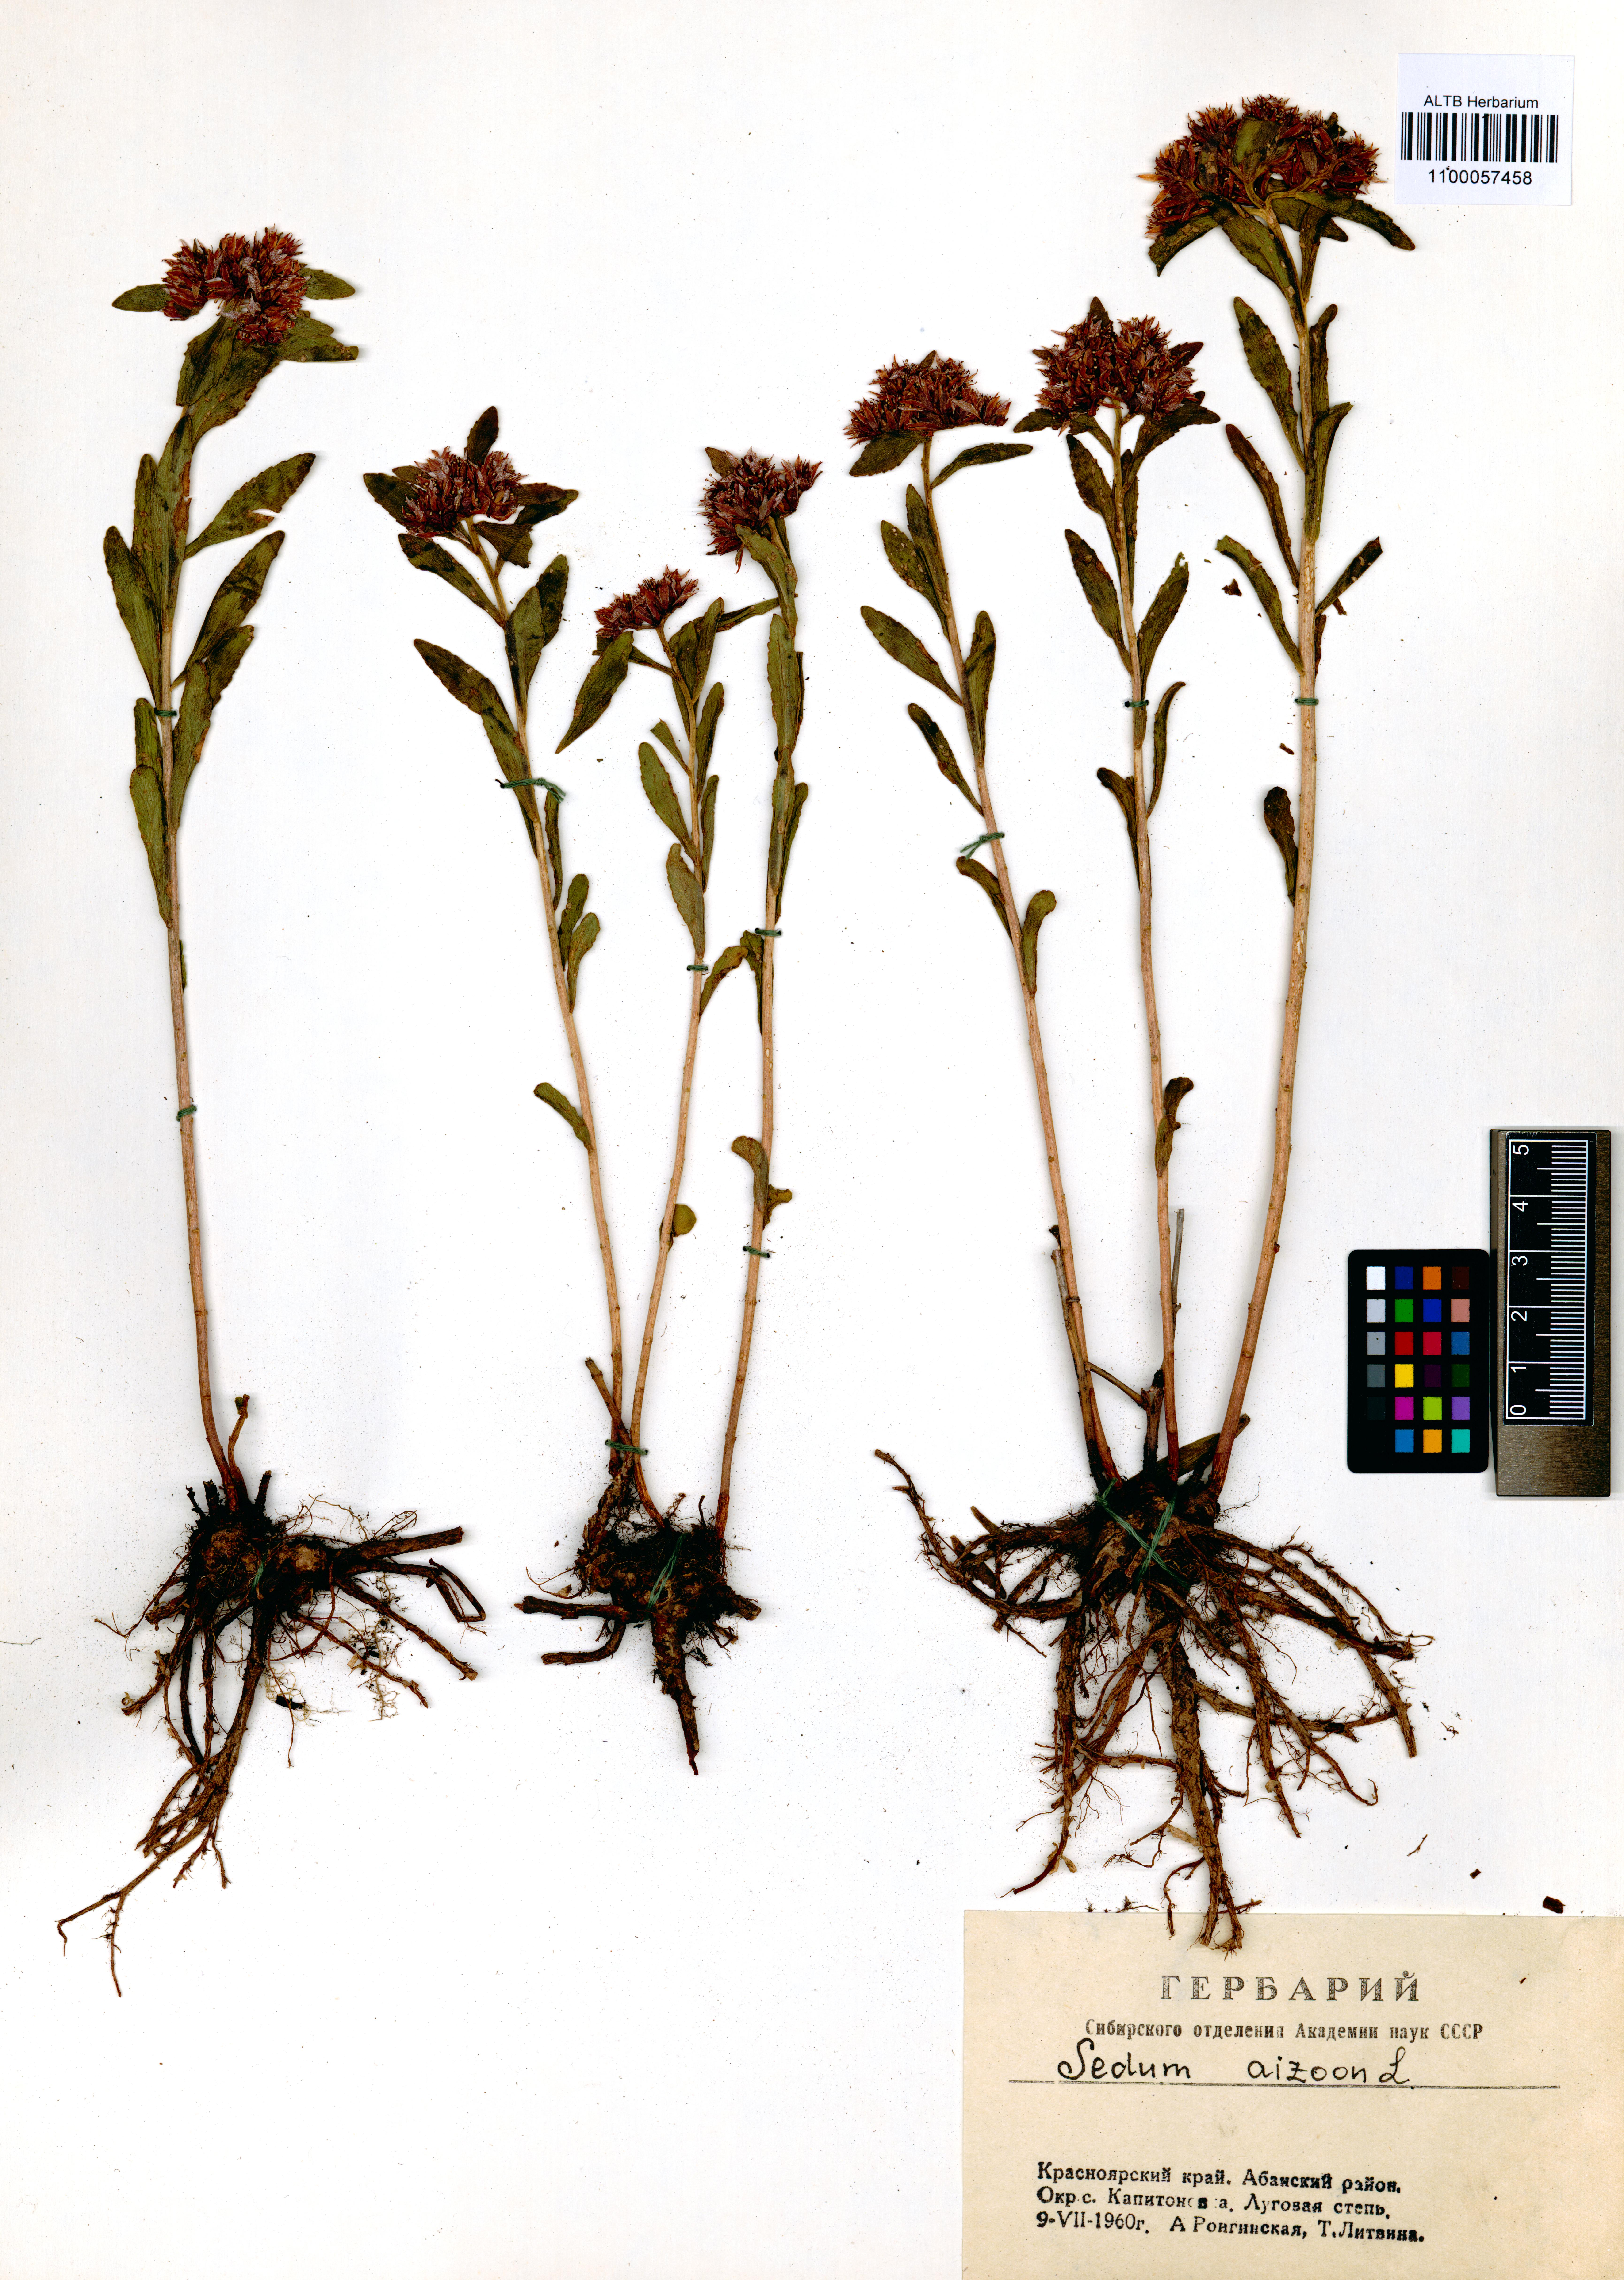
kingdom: Plantae
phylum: Tracheophyta
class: Magnoliopsida
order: Saxifragales
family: Crassulaceae
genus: Phedimus
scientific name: Phedimus aizoon
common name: Orpin aizoon
